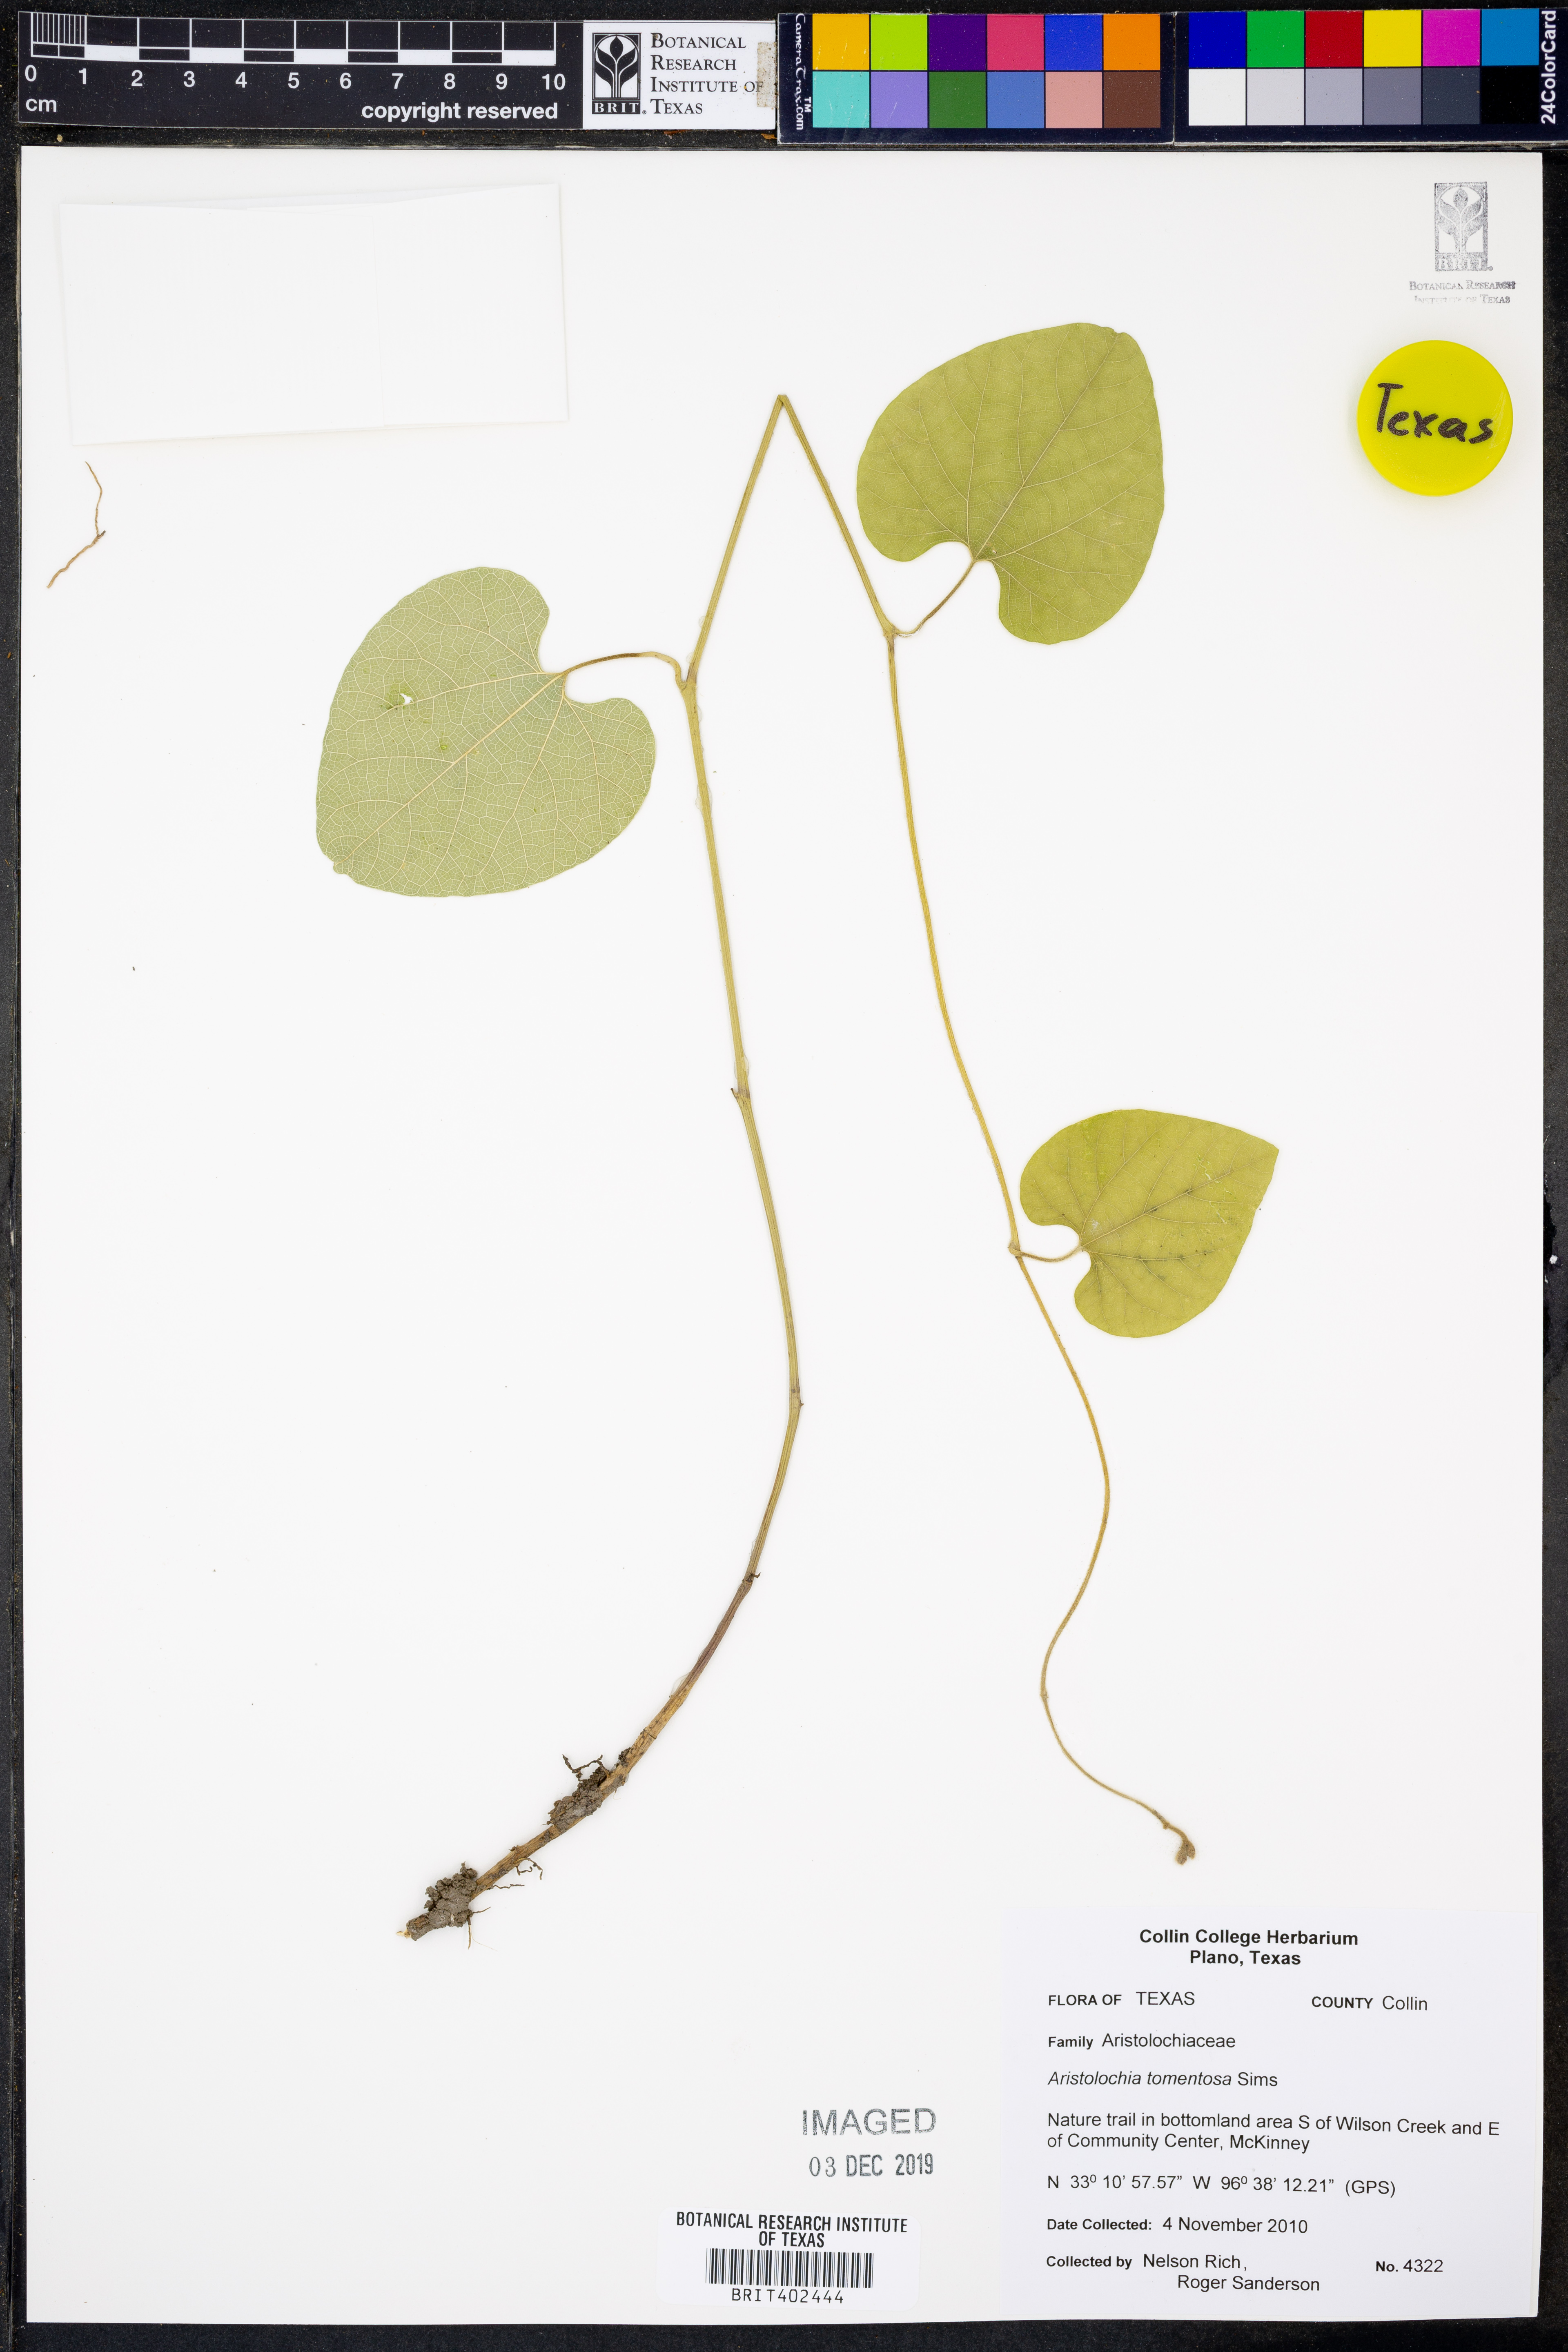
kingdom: Plantae
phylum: Tracheophyta
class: Magnoliopsida
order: Piperales
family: Aristolochiaceae
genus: Isotrema
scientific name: Isotrema tomentosum
